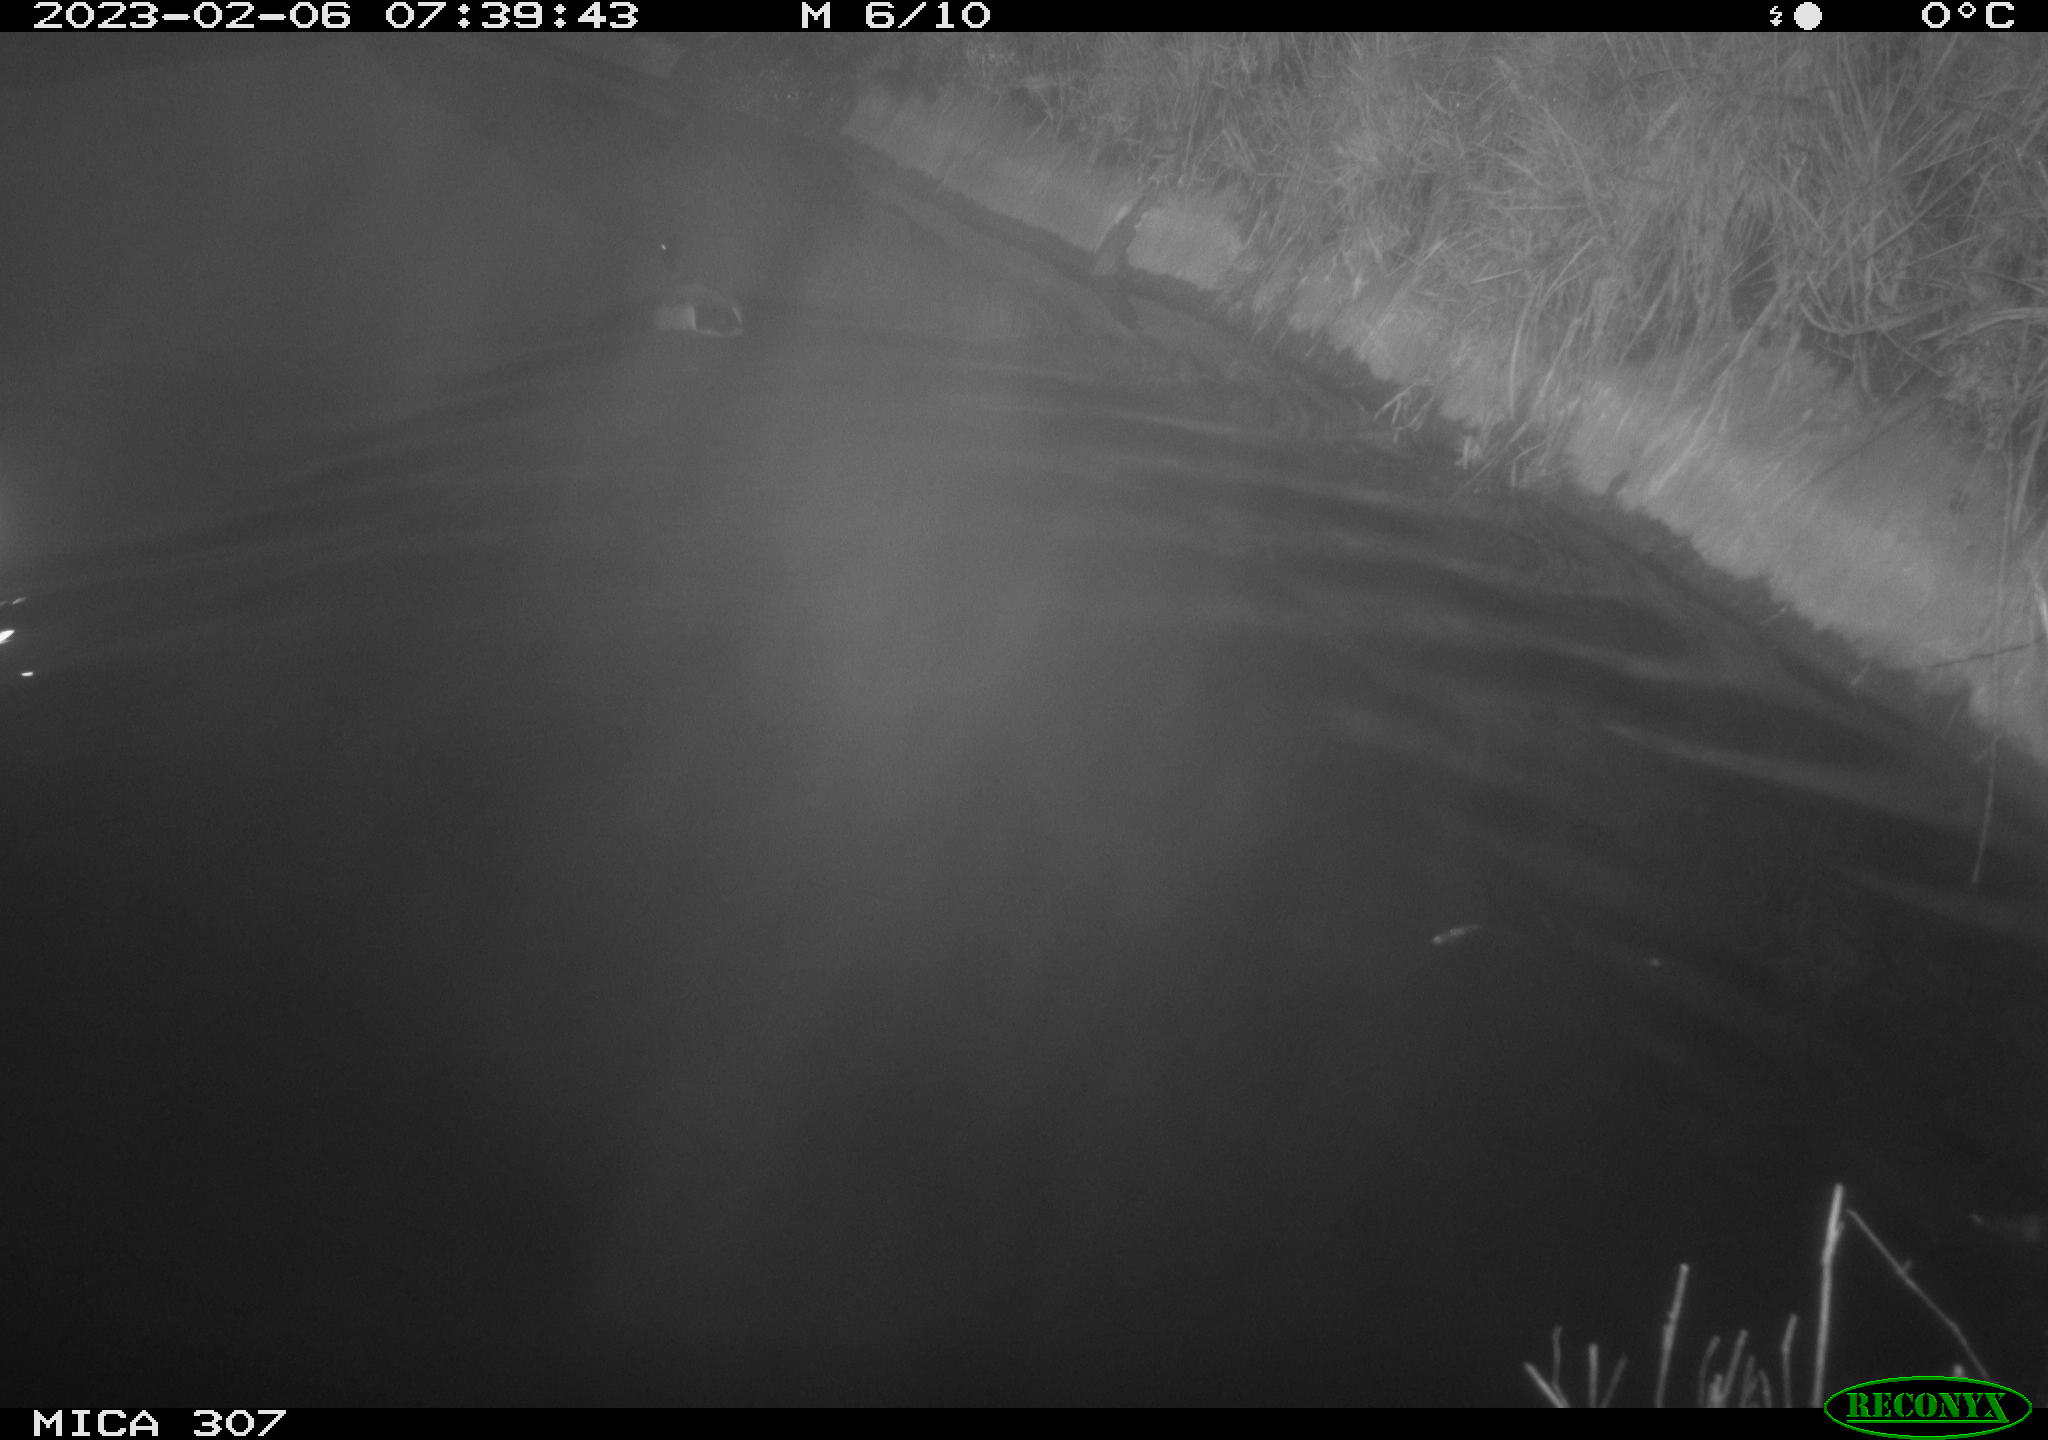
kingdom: Animalia
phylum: Chordata
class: Aves
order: Anseriformes
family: Anatidae
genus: Anas
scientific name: Anas
